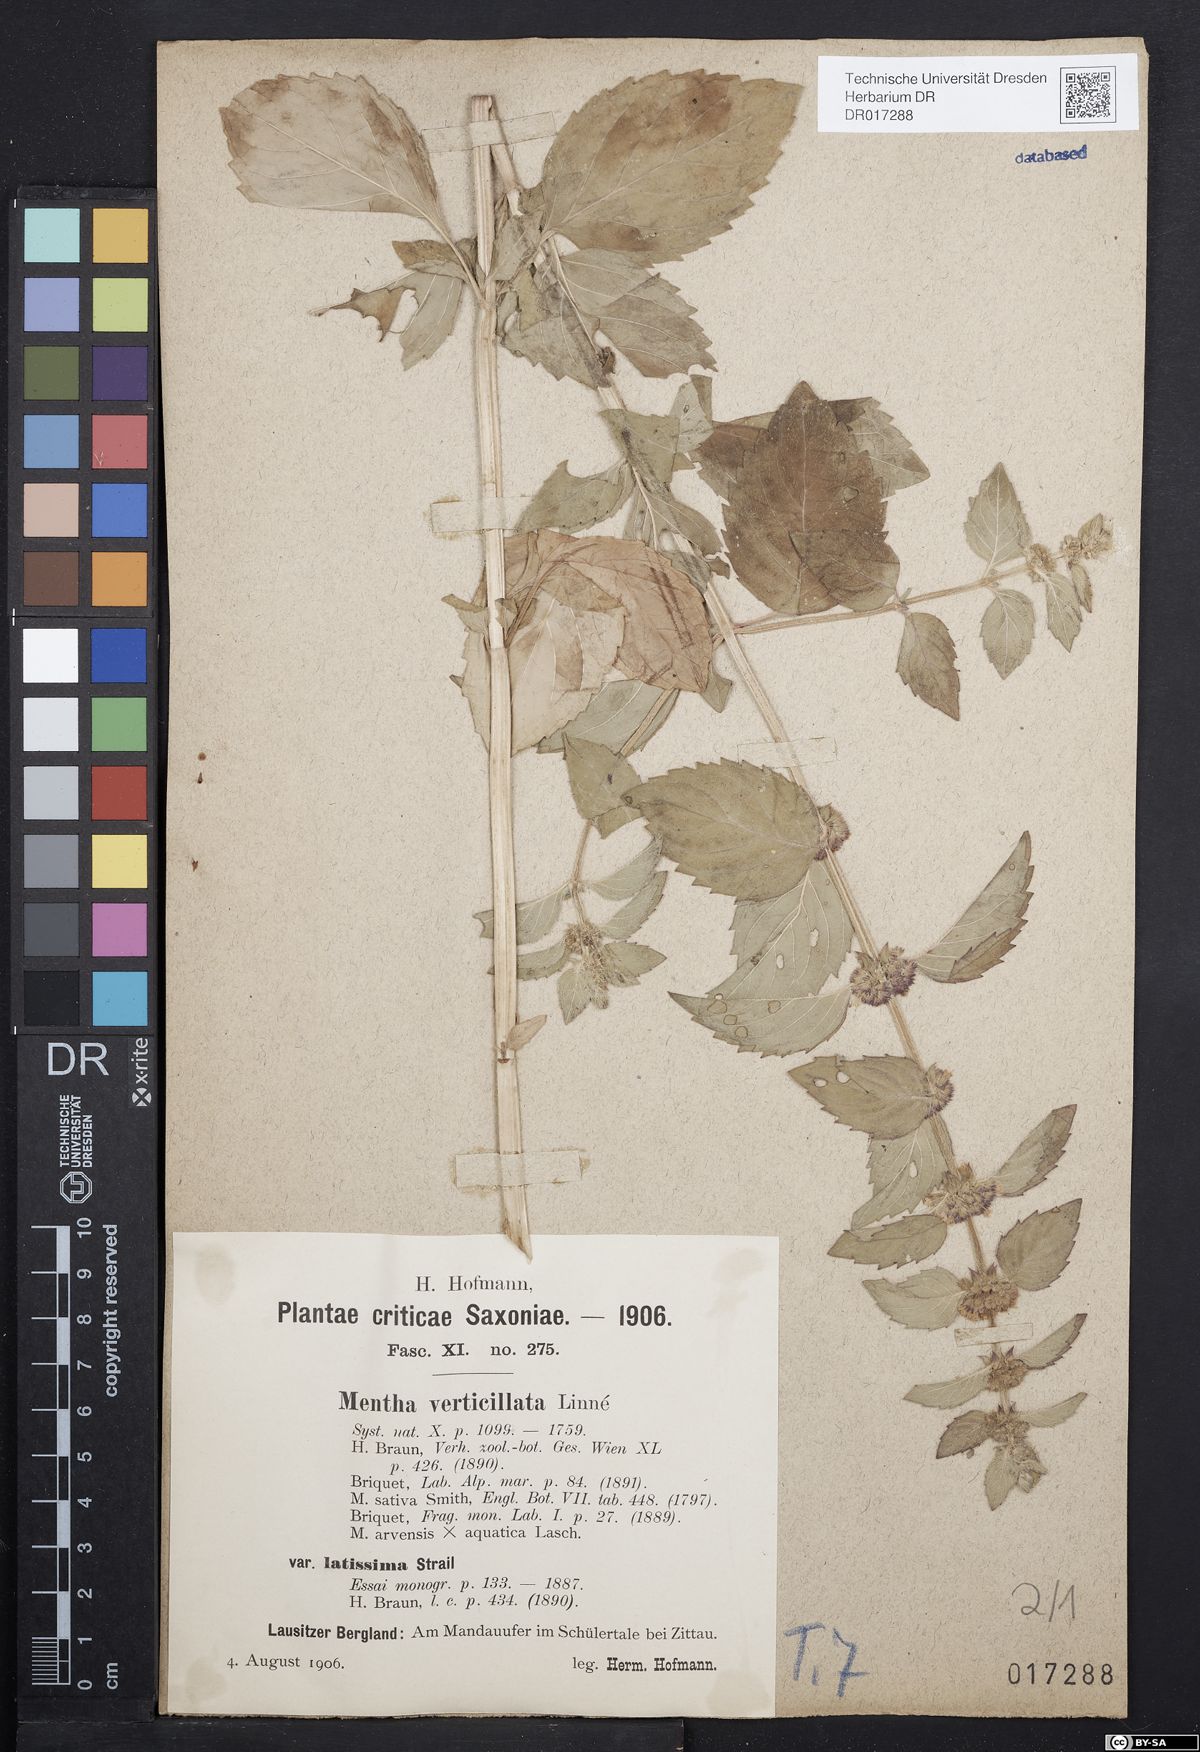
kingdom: Plantae
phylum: Tracheophyta
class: Magnoliopsida
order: Lamiales
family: Lamiaceae
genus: Mentha
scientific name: Mentha verticillata
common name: Mint
